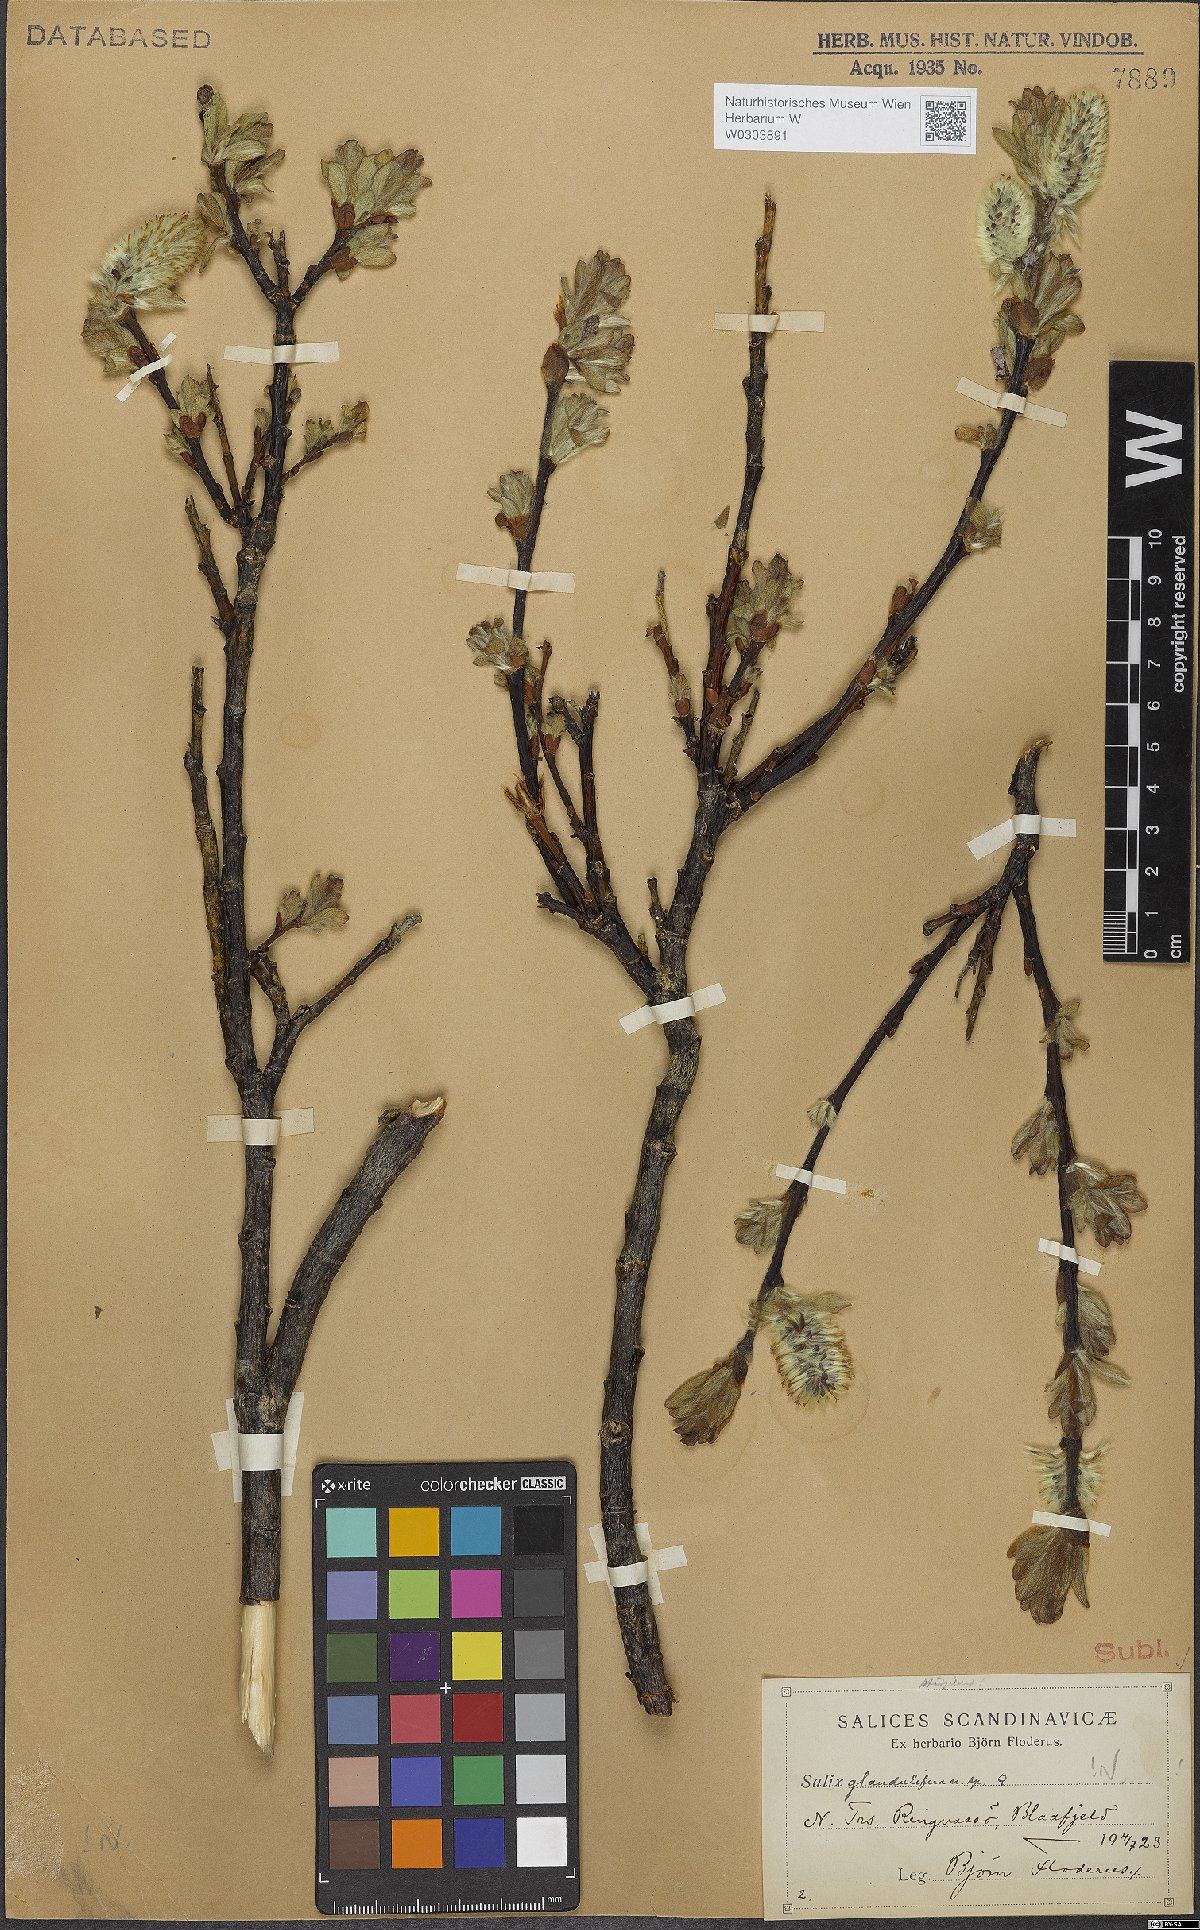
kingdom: Plantae
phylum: Tracheophyta
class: Magnoliopsida
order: Malpighiales
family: Salicaceae
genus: Salix
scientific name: Salix lanata
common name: Woolly willow
